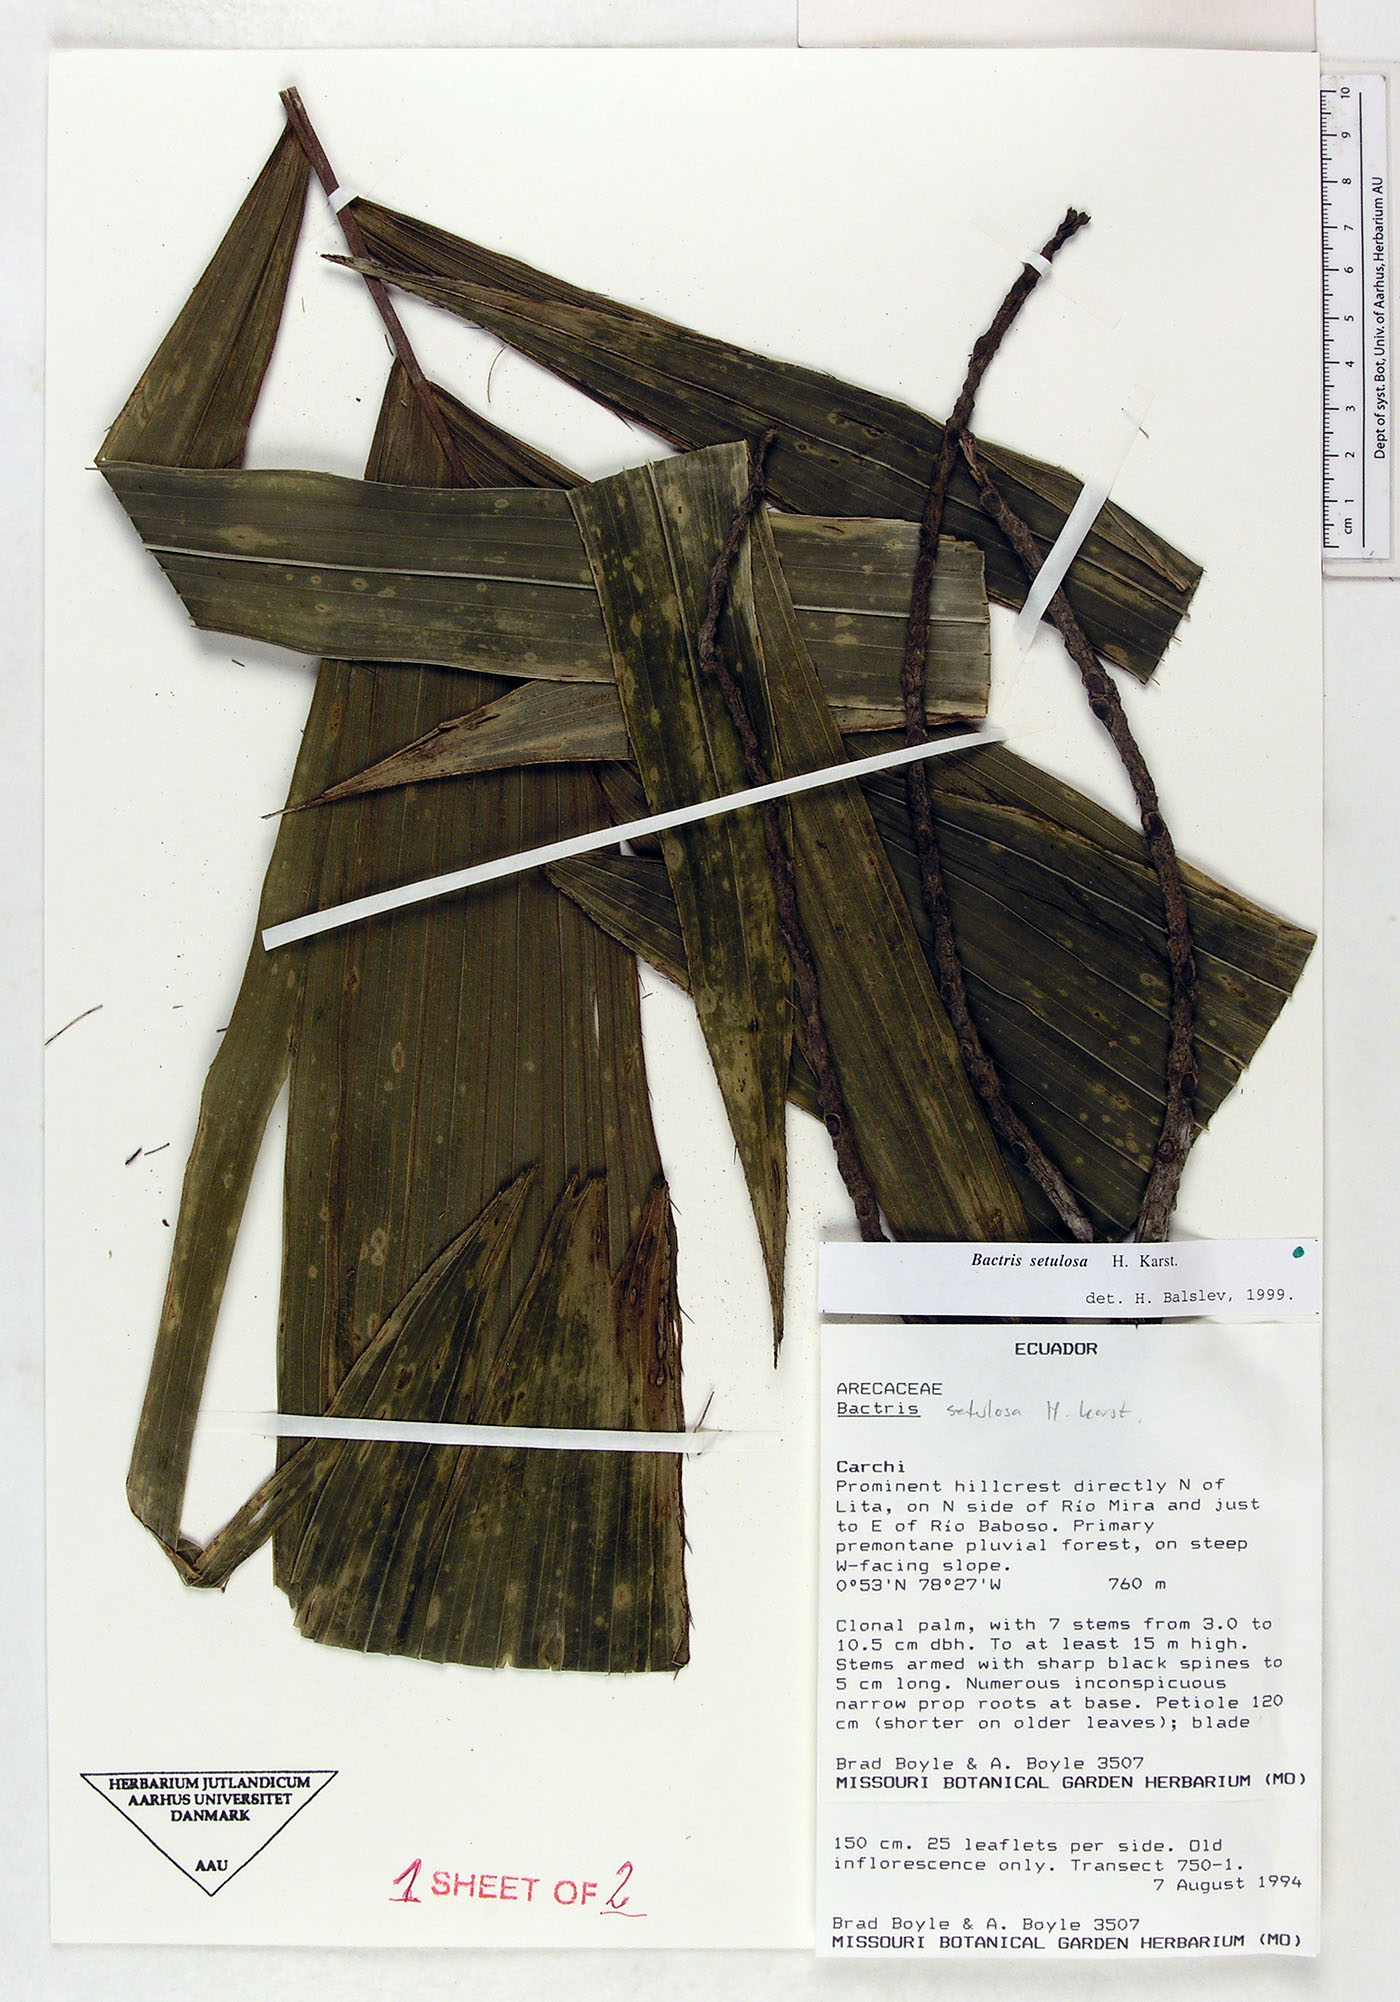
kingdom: Plantae
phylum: Tracheophyta
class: Liliopsida
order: Arecales
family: Arecaceae
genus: Bactris
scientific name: Bactris setulosa
